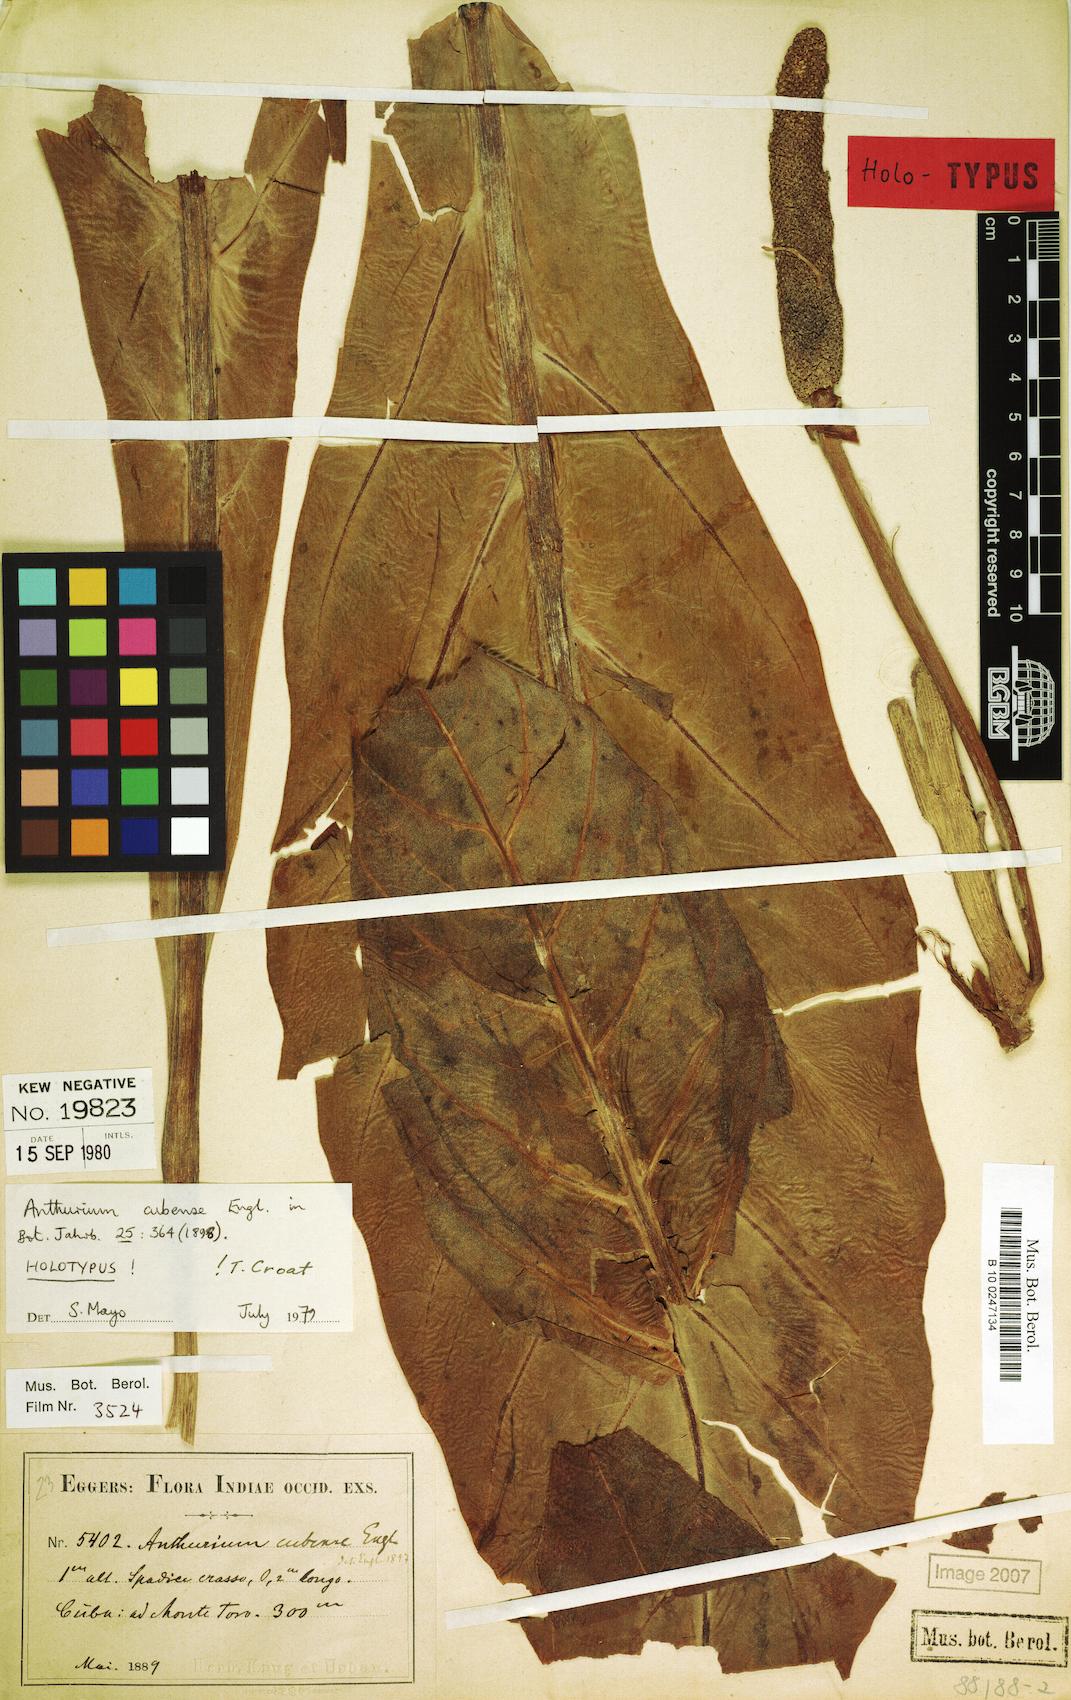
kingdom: Plantae
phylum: Tracheophyta
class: Liliopsida
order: Alismatales
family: Araceae
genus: Anthurium
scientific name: Anthurium cubense
